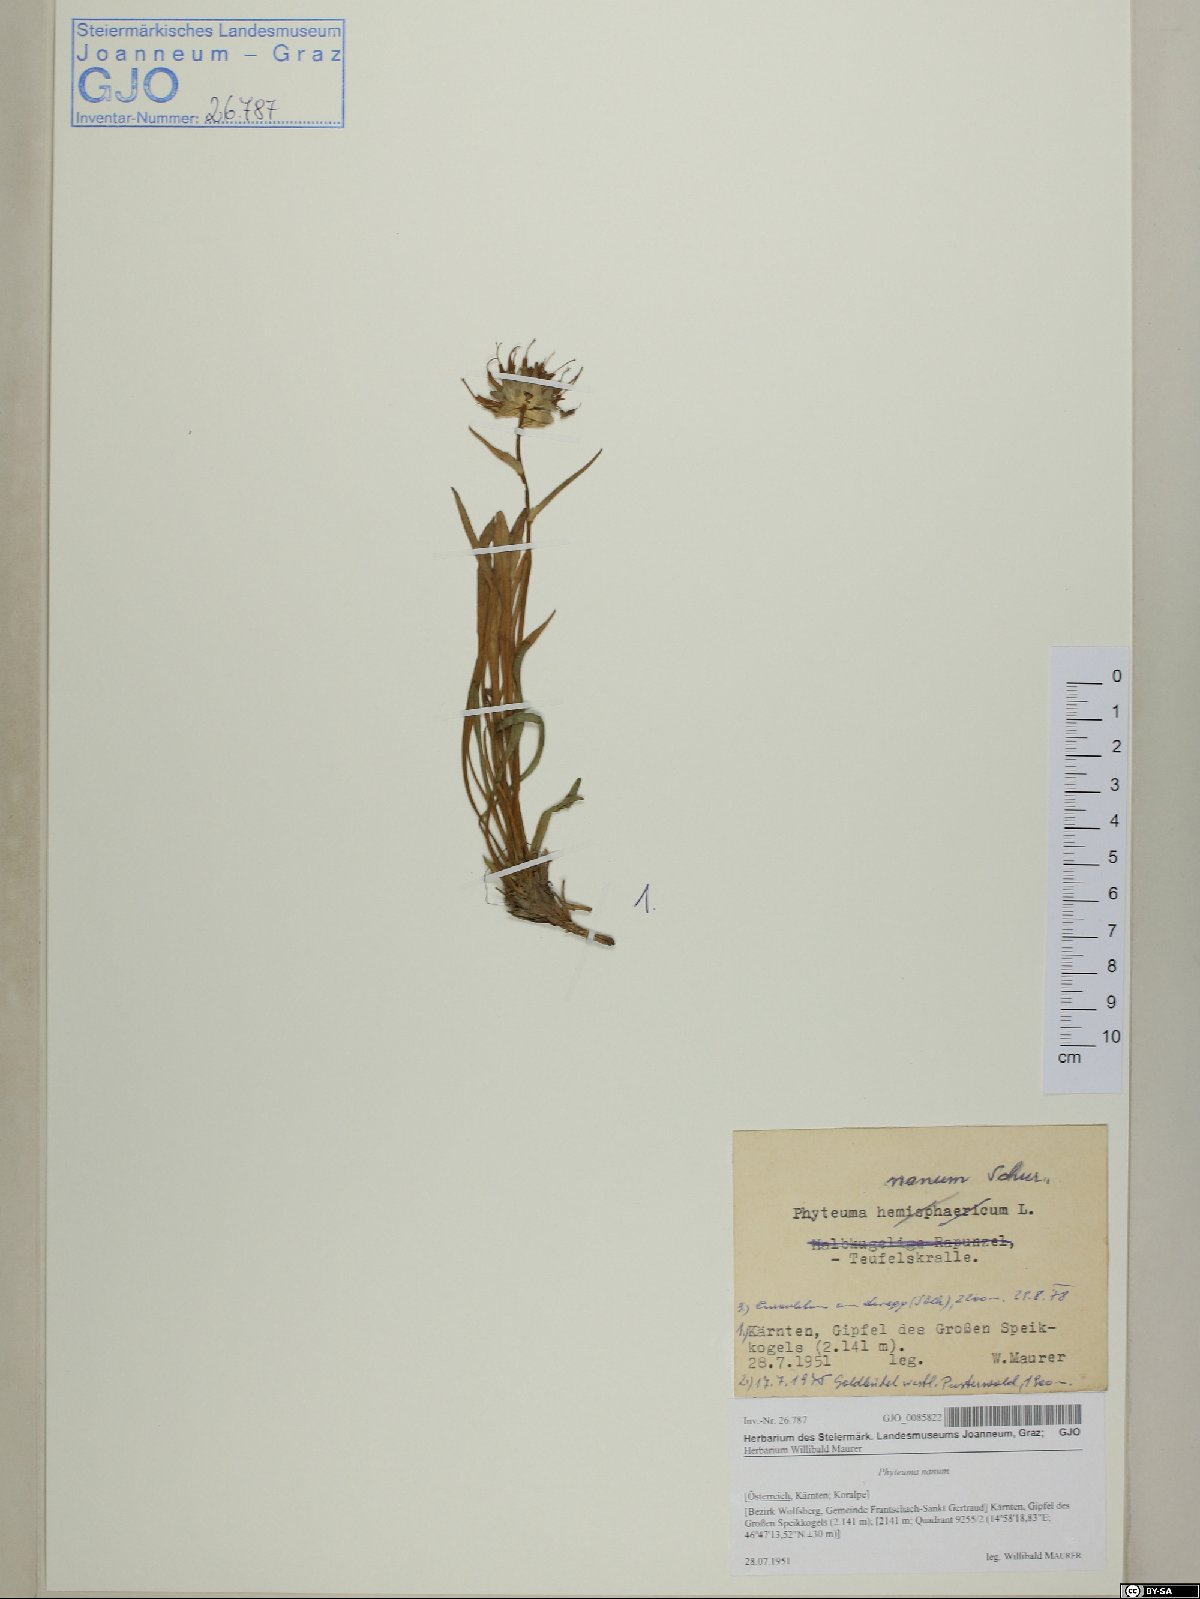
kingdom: Plantae
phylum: Tracheophyta
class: Magnoliopsida
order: Asterales
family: Campanulaceae
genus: Phyteuma
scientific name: Phyteuma globulariifolium
